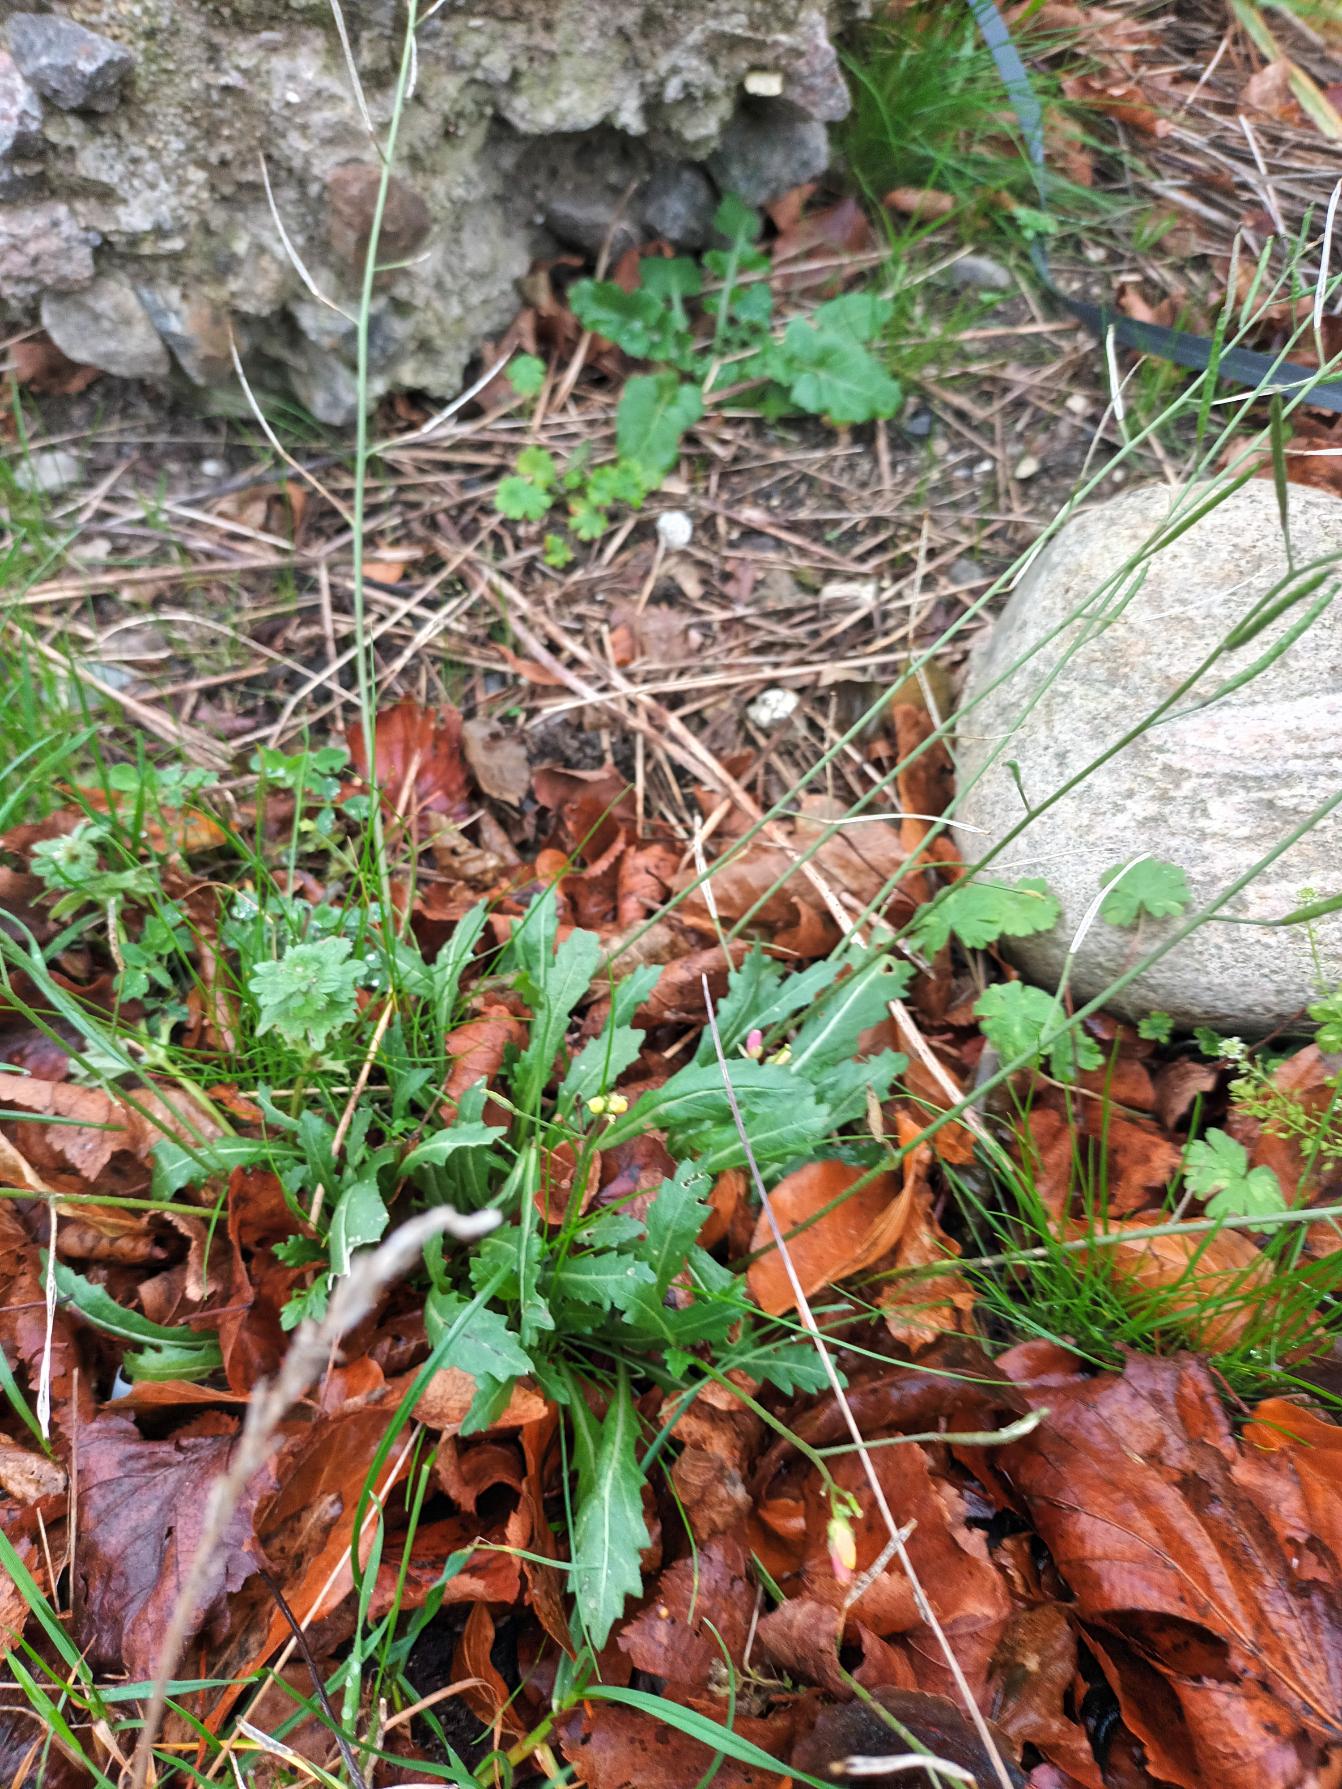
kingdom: Plantae
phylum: Tracheophyta
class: Magnoliopsida
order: Brassicales
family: Brassicaceae
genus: Diplotaxis
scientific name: Diplotaxis muralis
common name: Mursennep
